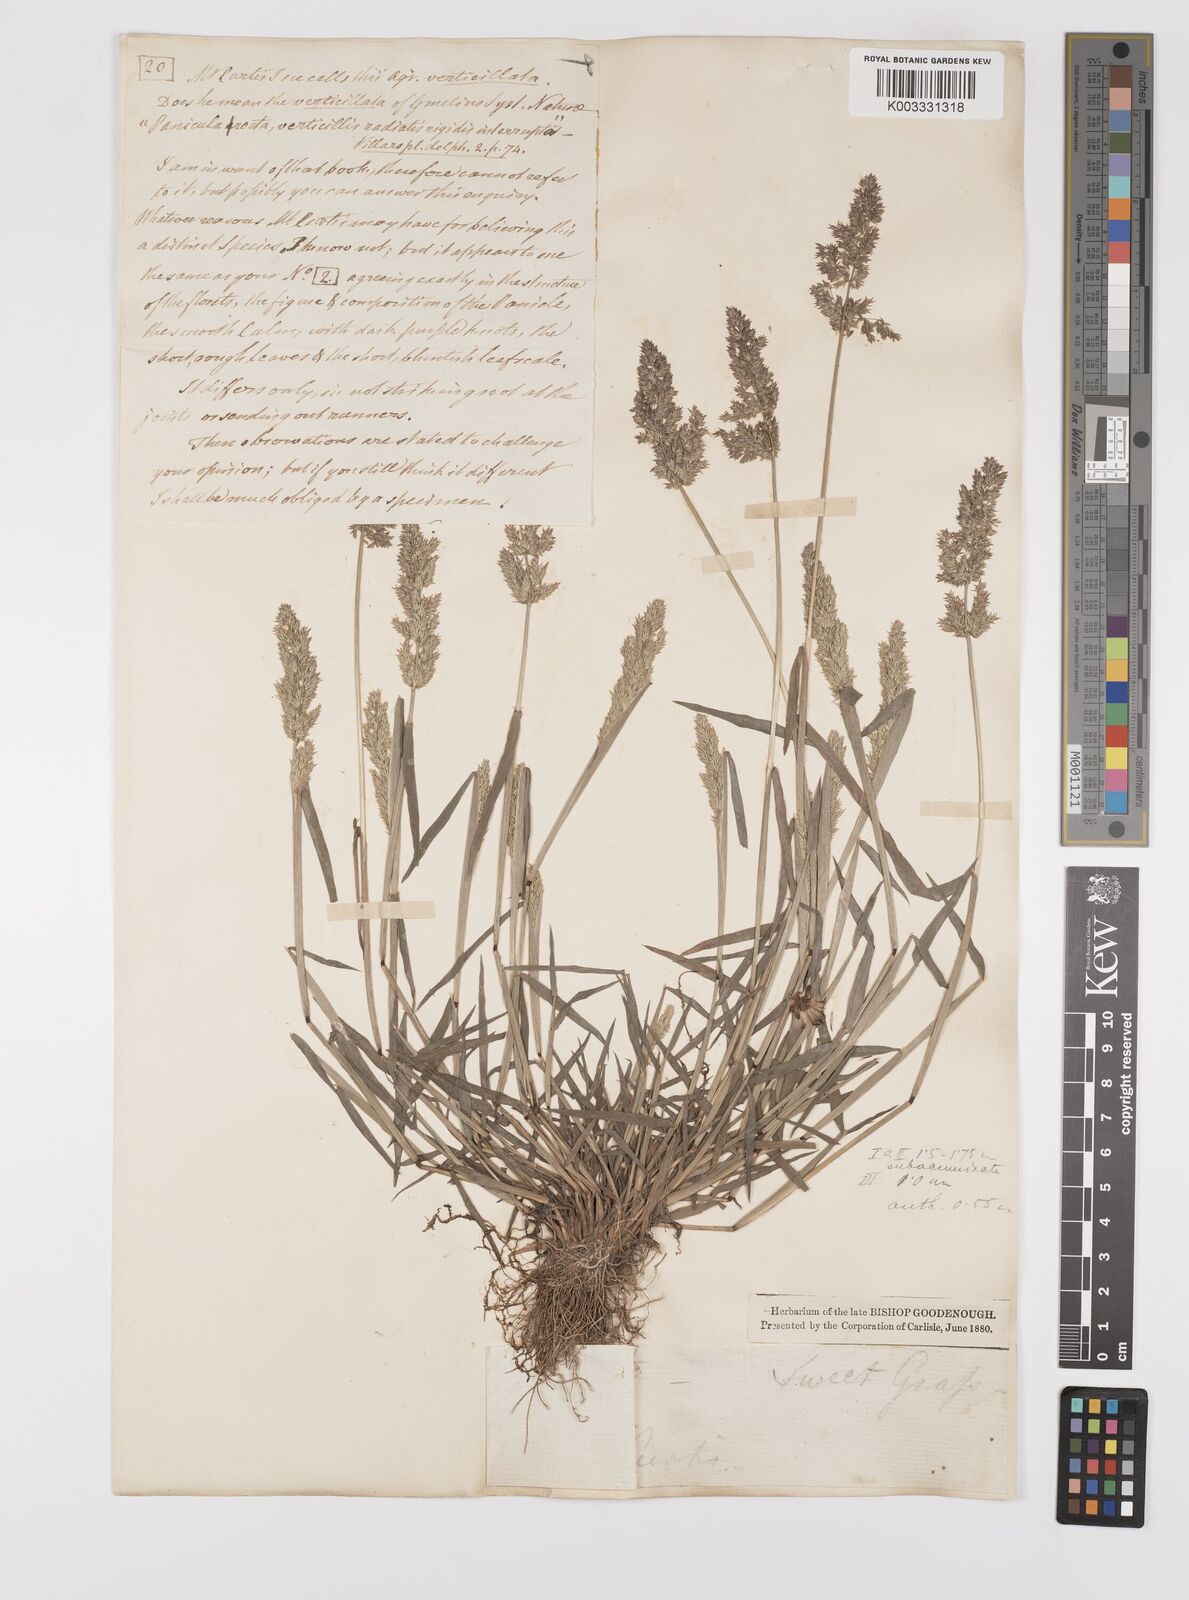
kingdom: Plantae
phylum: Tracheophyta
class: Liliopsida
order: Poales
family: Poaceae
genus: Polypogon
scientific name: Polypogon viridis
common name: Water bent
